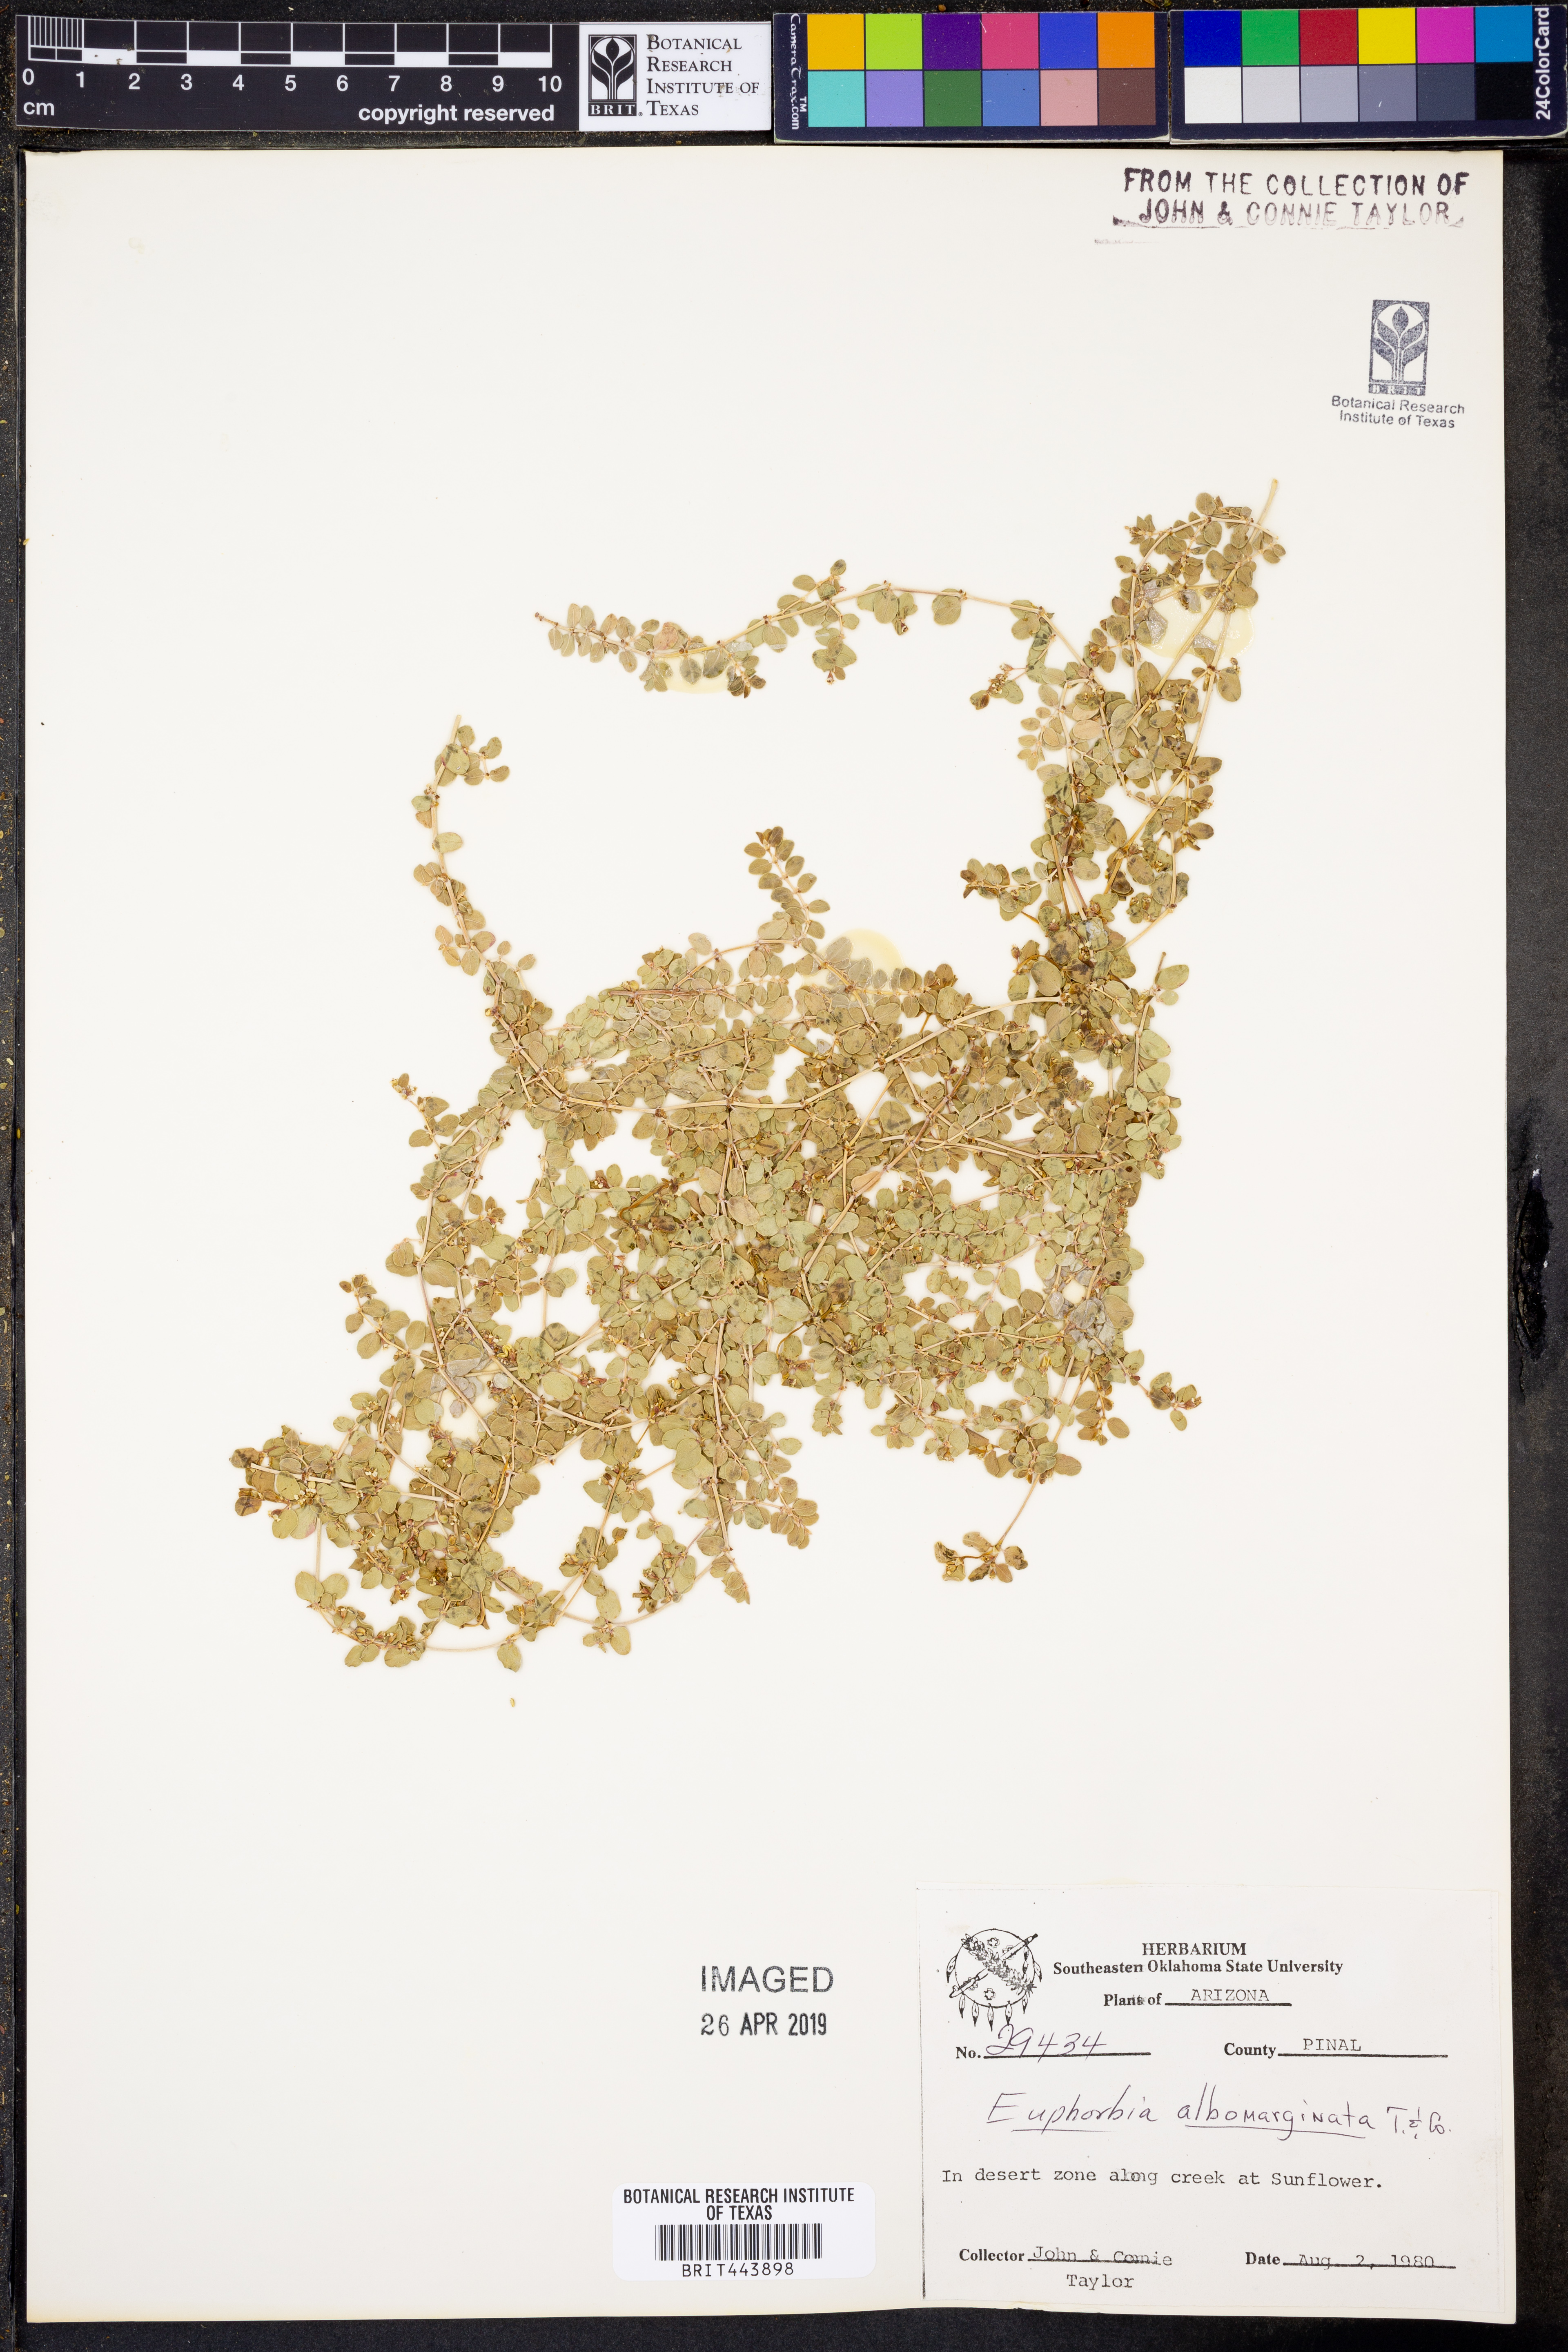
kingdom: Plantae
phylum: Tracheophyta
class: Magnoliopsida
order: Malpighiales
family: Euphorbiaceae
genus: Euphorbia
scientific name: Euphorbia albomarginata
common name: Whitemargin sandmat
